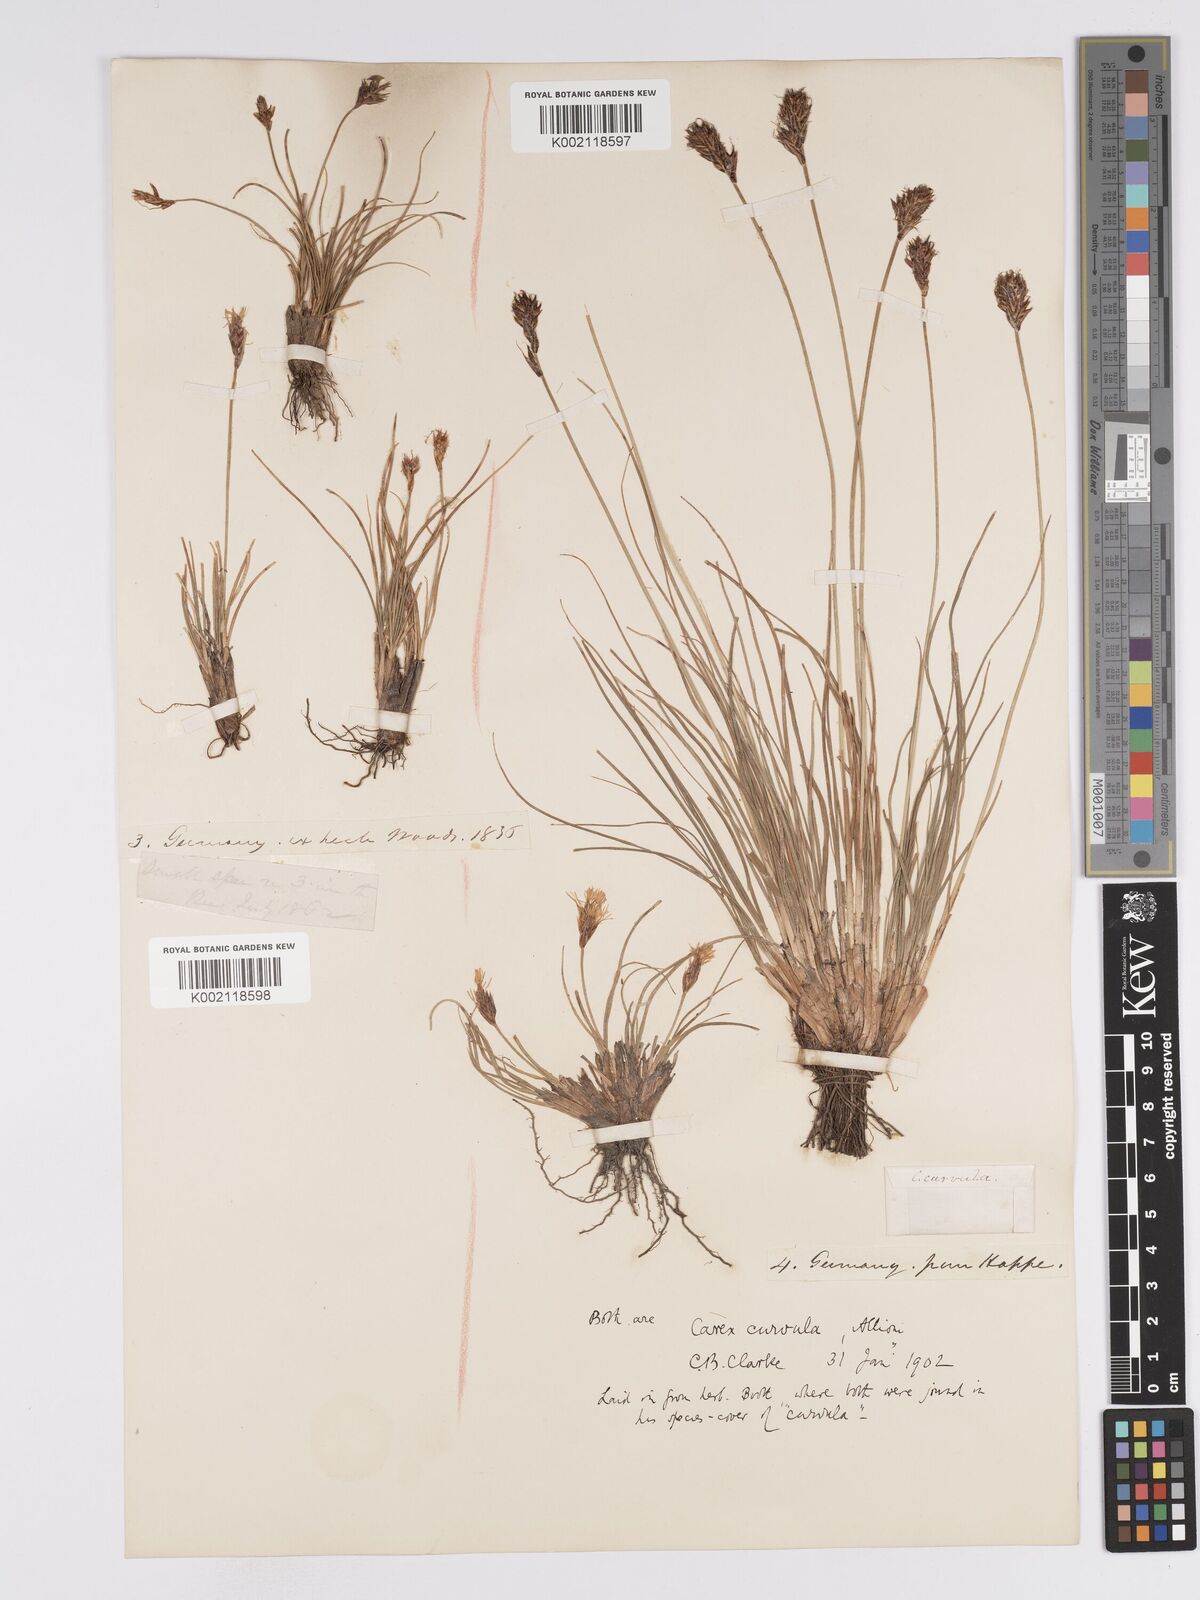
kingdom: Plantae
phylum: Tracheophyta
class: Liliopsida
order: Poales
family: Cyperaceae
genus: Carex
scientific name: Carex curvula
